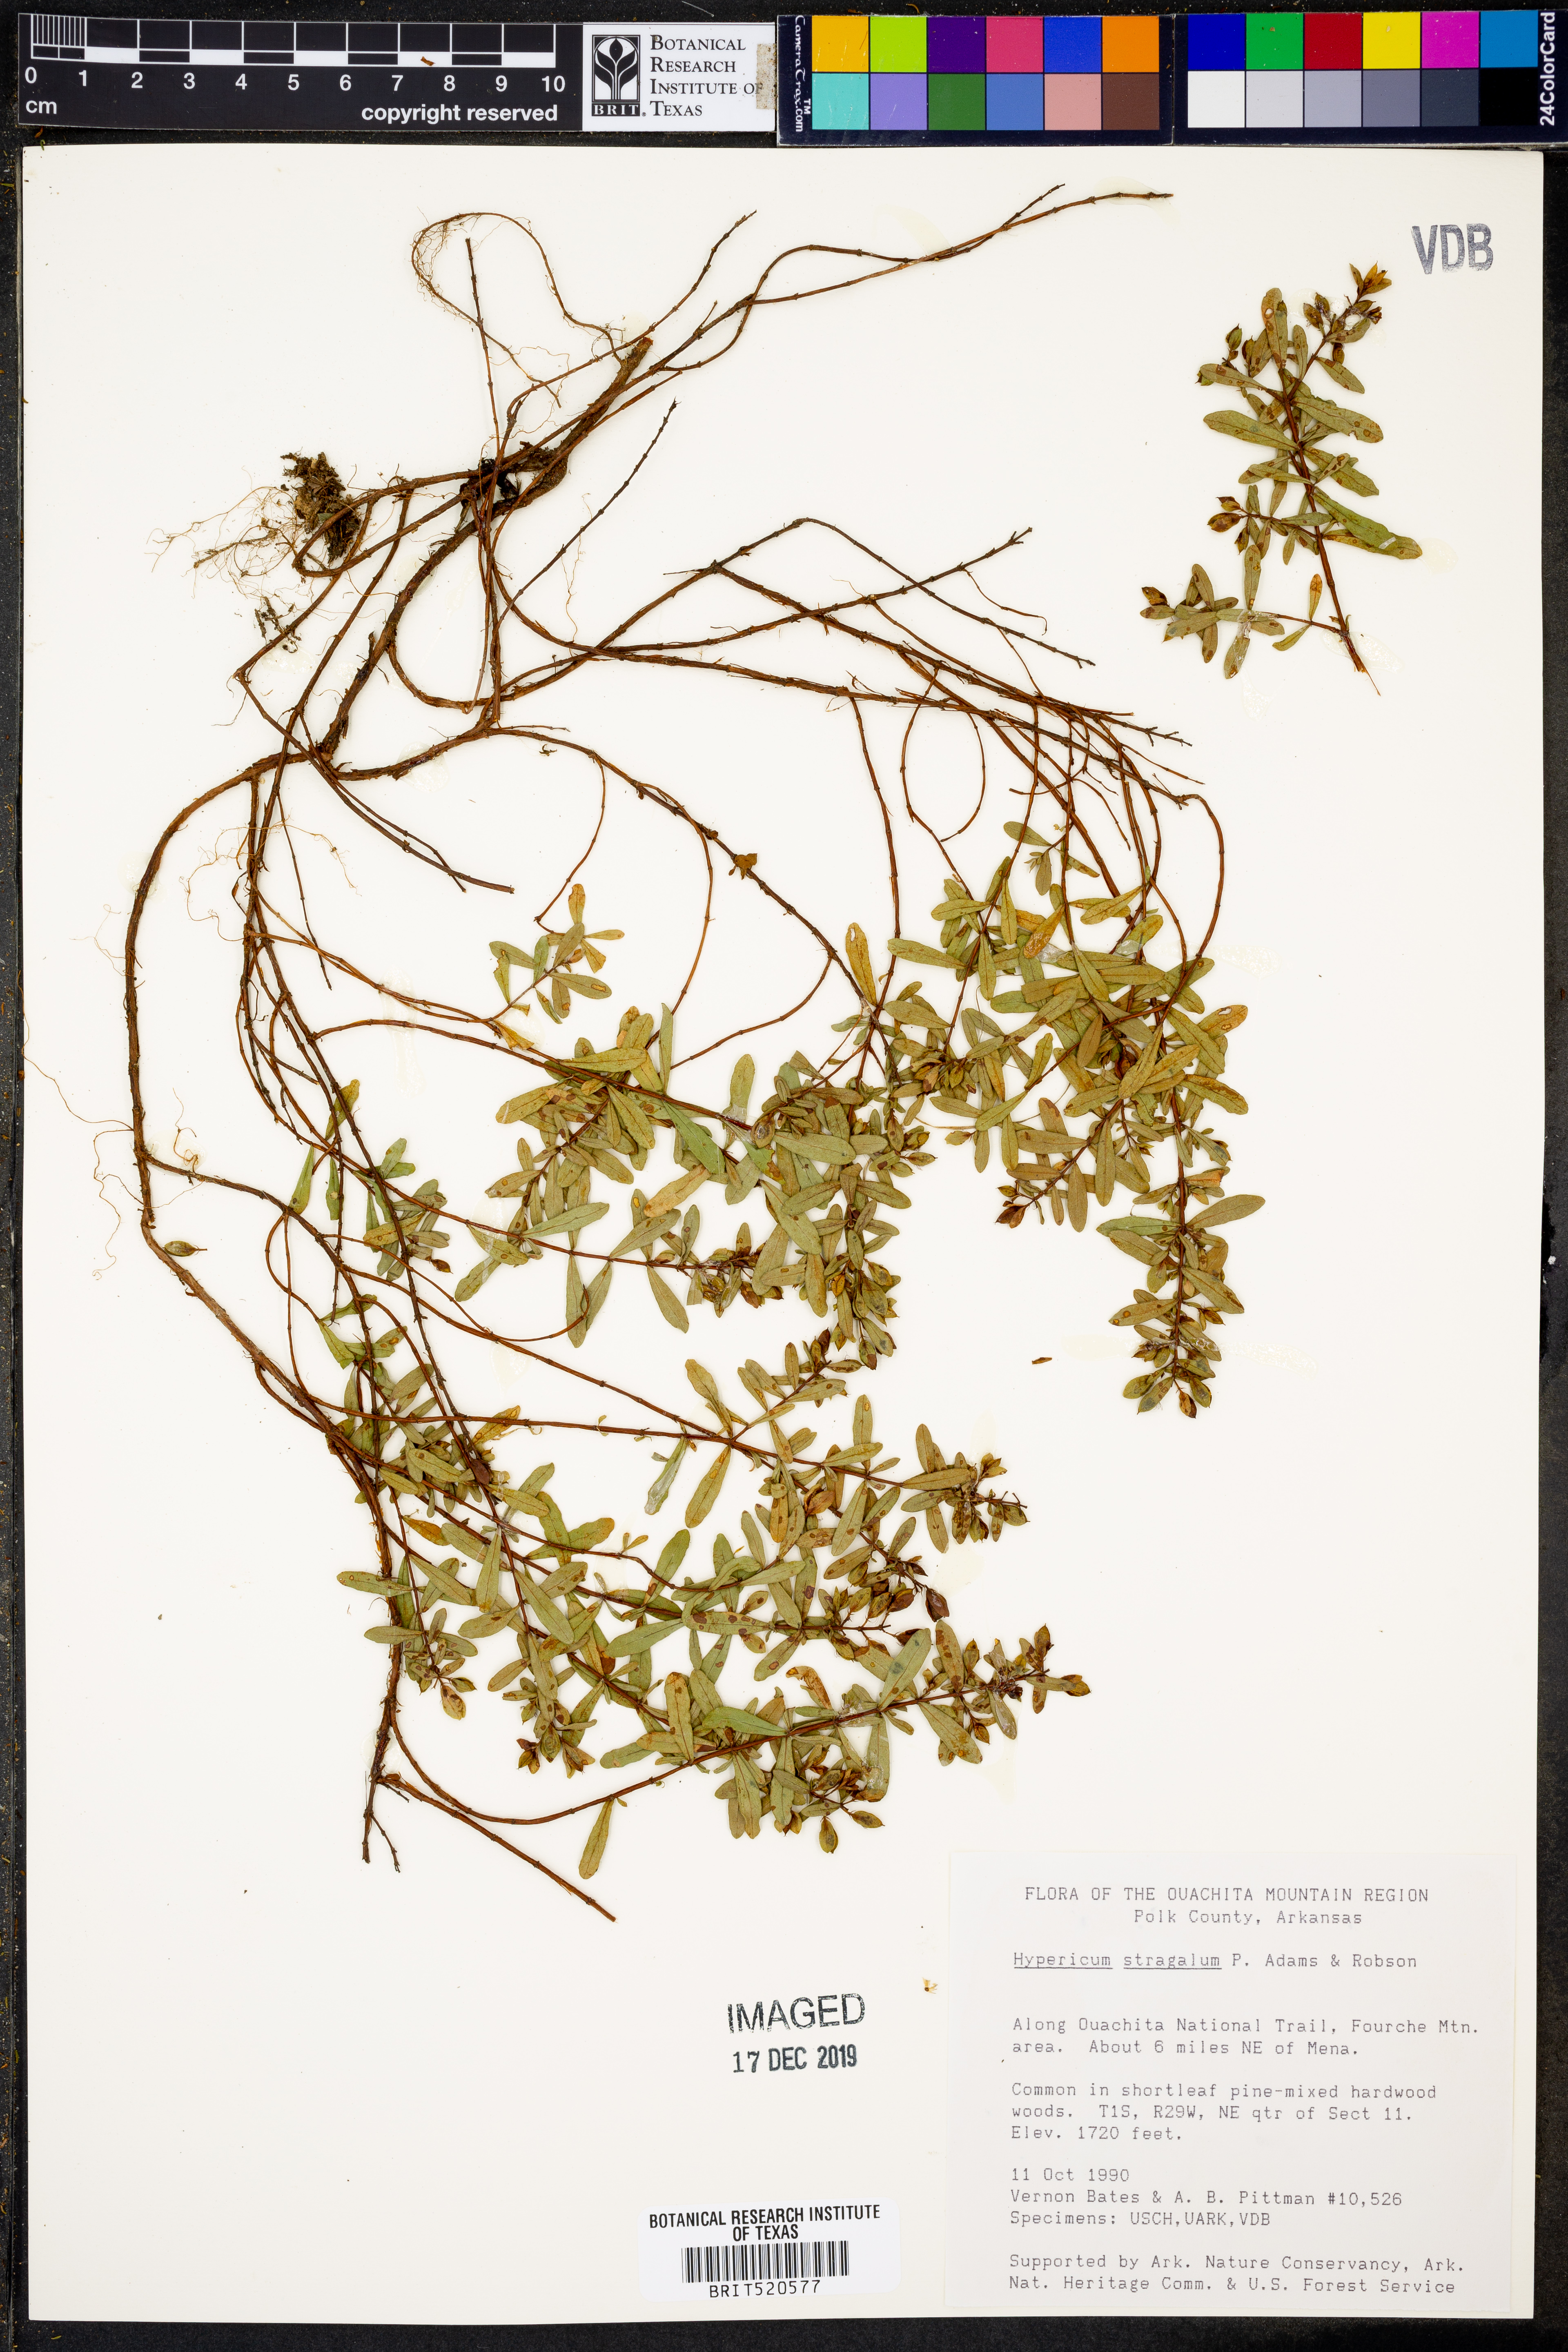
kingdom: Plantae
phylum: Tracheophyta
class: Magnoliopsida
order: Malpighiales
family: Hypericaceae
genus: Hypericum
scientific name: Hypericum hypericoides
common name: St. andrew's cross
